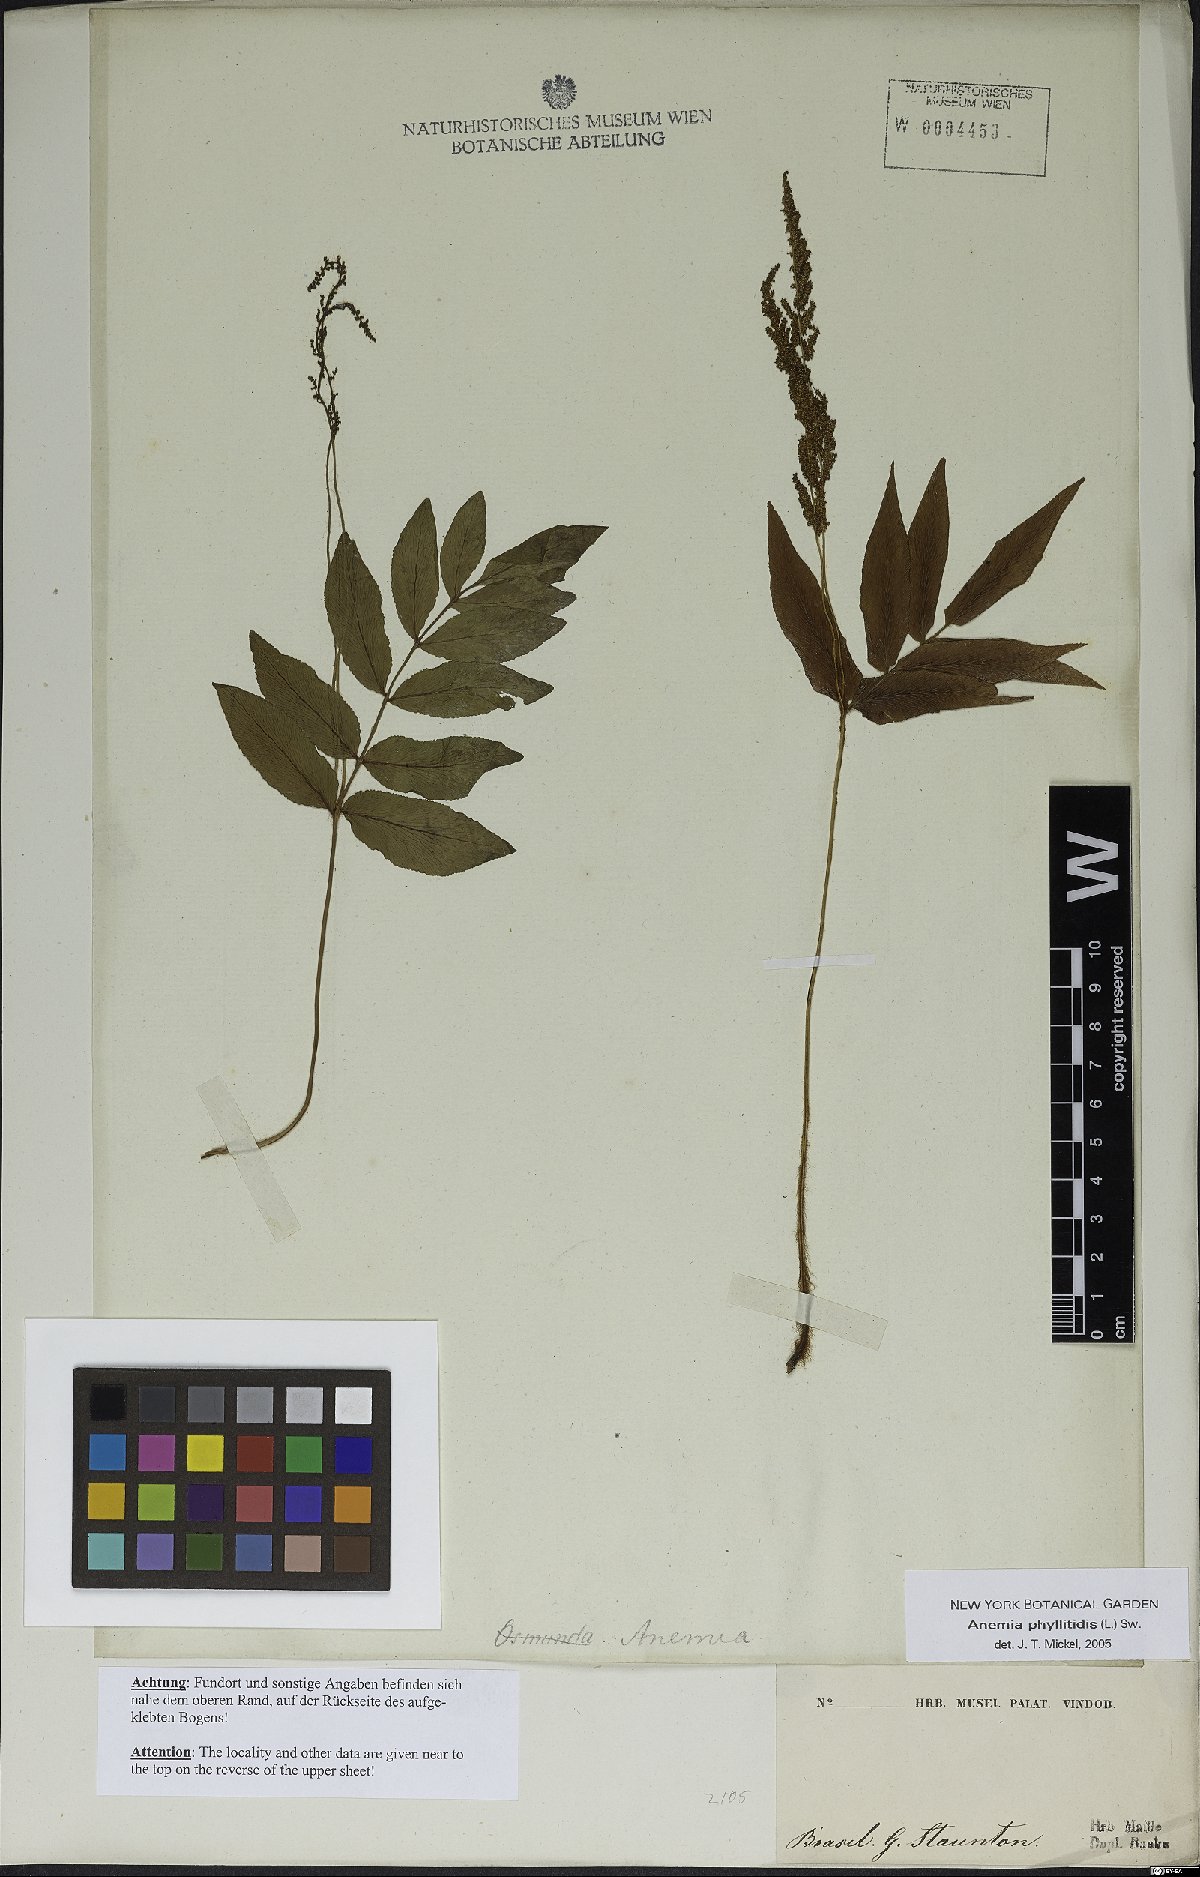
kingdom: Plantae
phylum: Tracheophyta
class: Polypodiopsida
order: Schizaeales
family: Anemiaceae
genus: Anemia
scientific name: Anemia phyllitidis
